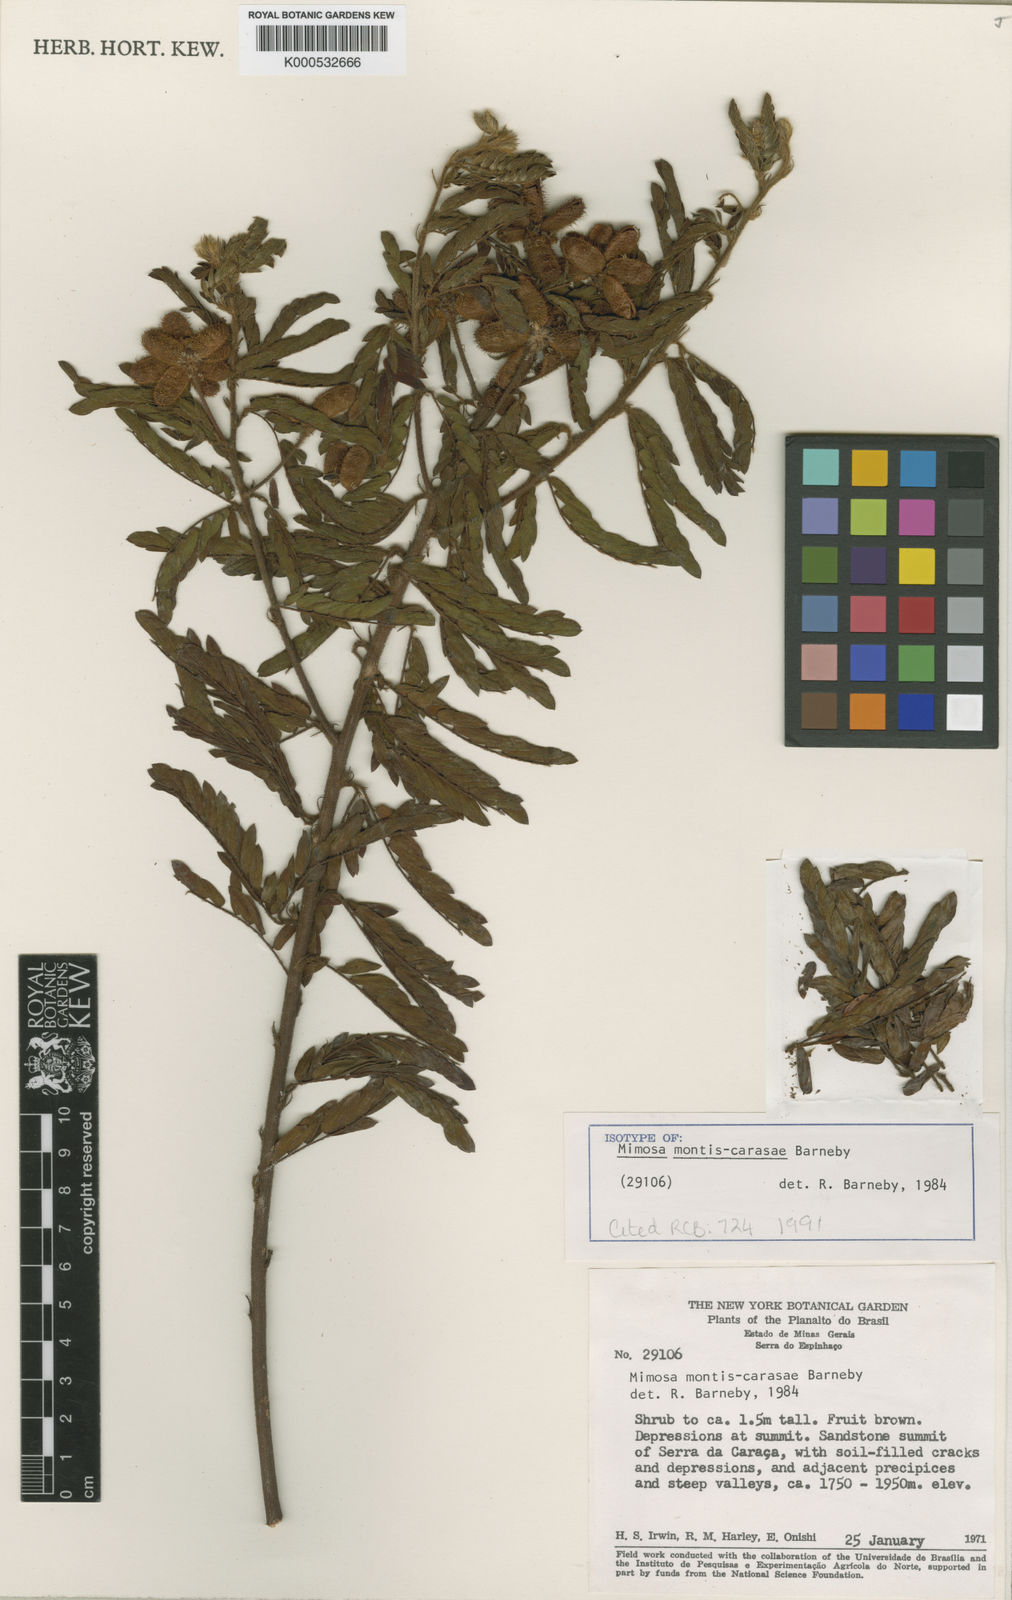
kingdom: Plantae
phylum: Tracheophyta
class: Magnoliopsida
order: Fabales
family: Fabaceae
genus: Mimosa
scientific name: Mimosa montis-carasae
